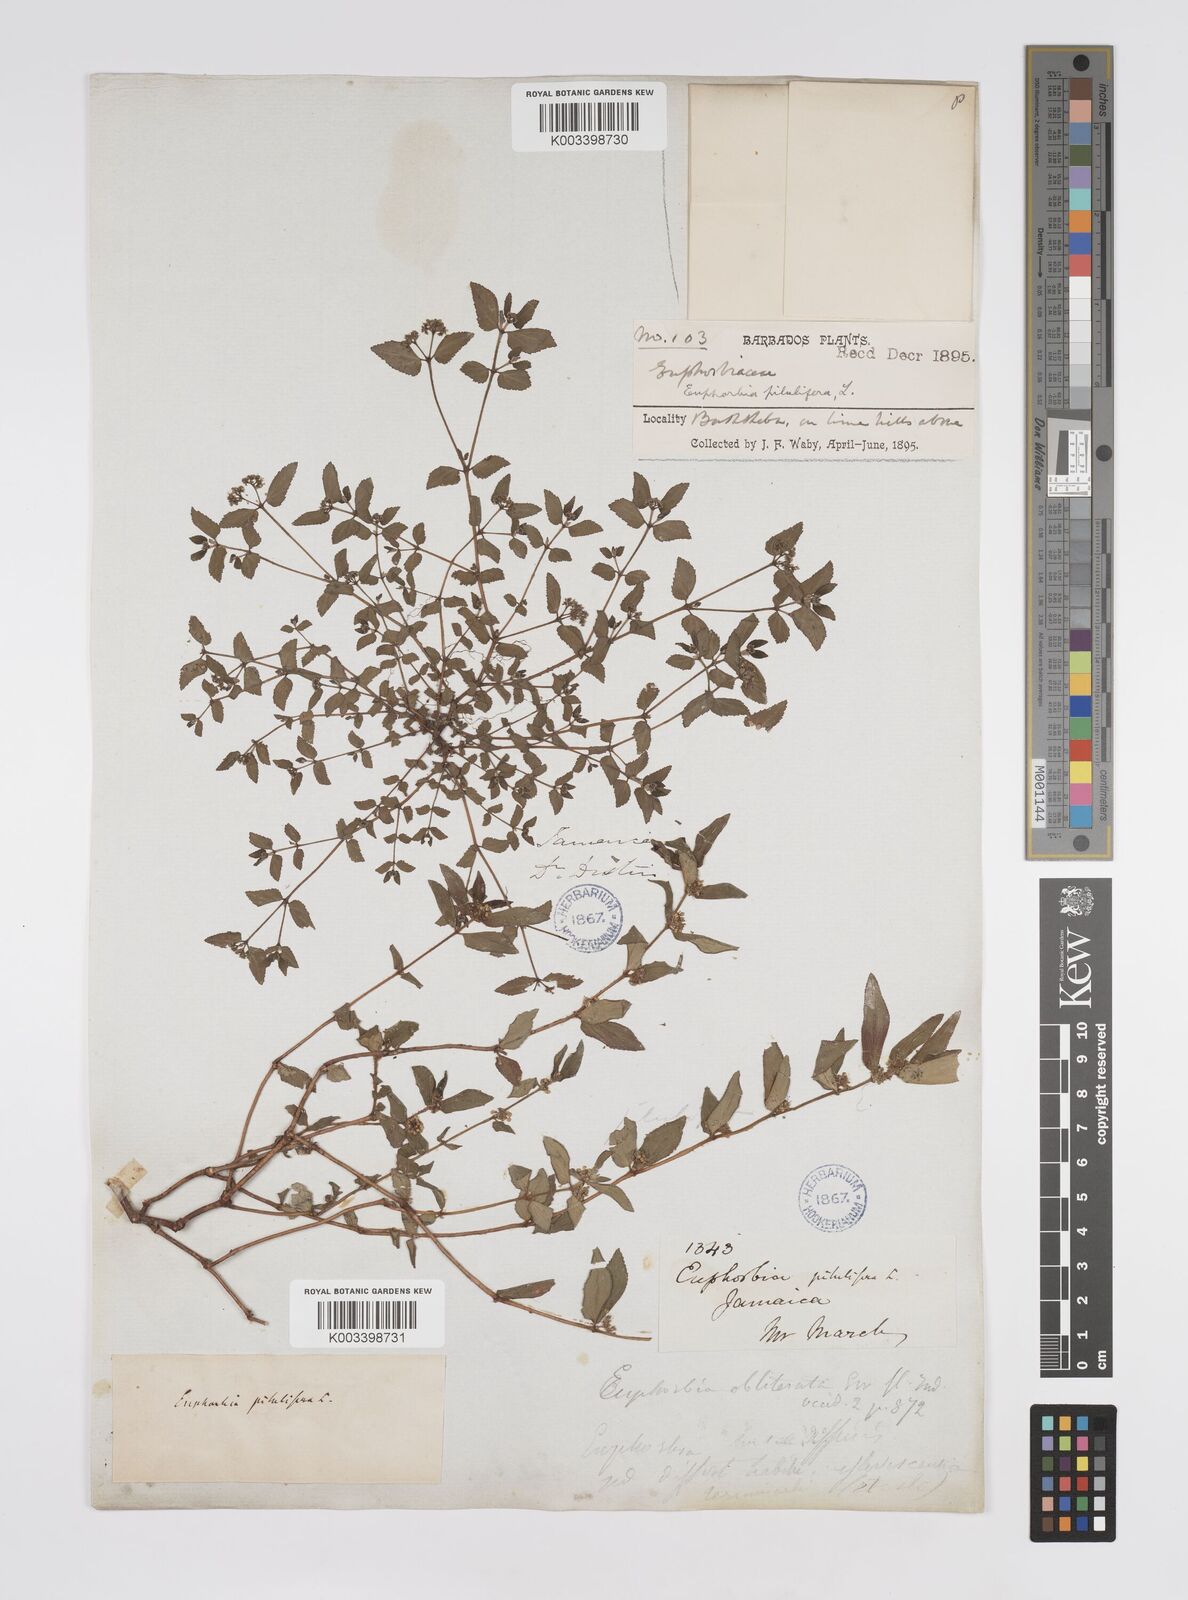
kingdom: Plantae
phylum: Tracheophyta
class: Magnoliopsida
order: Malpighiales
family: Euphorbiaceae
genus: Euphorbia
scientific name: Euphorbia hirta
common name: Pillpod sandmat
